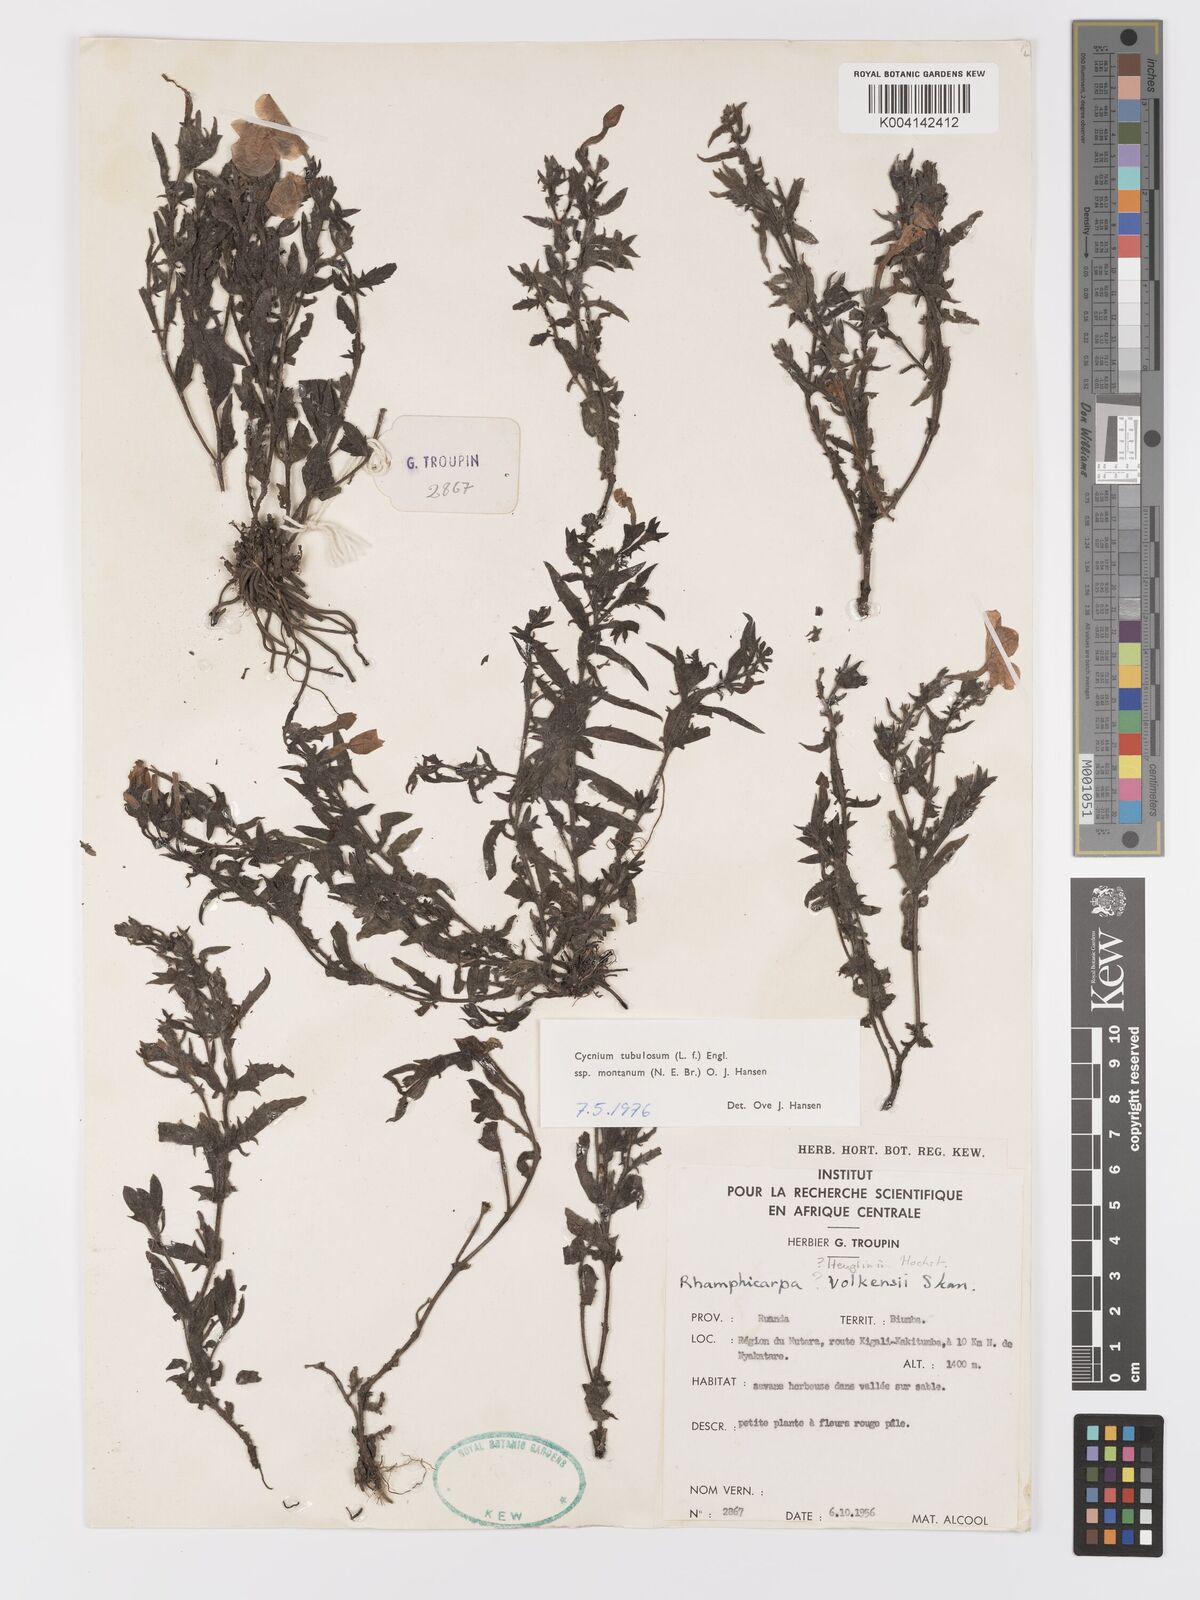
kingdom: Plantae
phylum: Tracheophyta
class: Magnoliopsida
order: Lamiales
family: Orobanchaceae
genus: Cycnium
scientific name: Cycnium tubulosum
